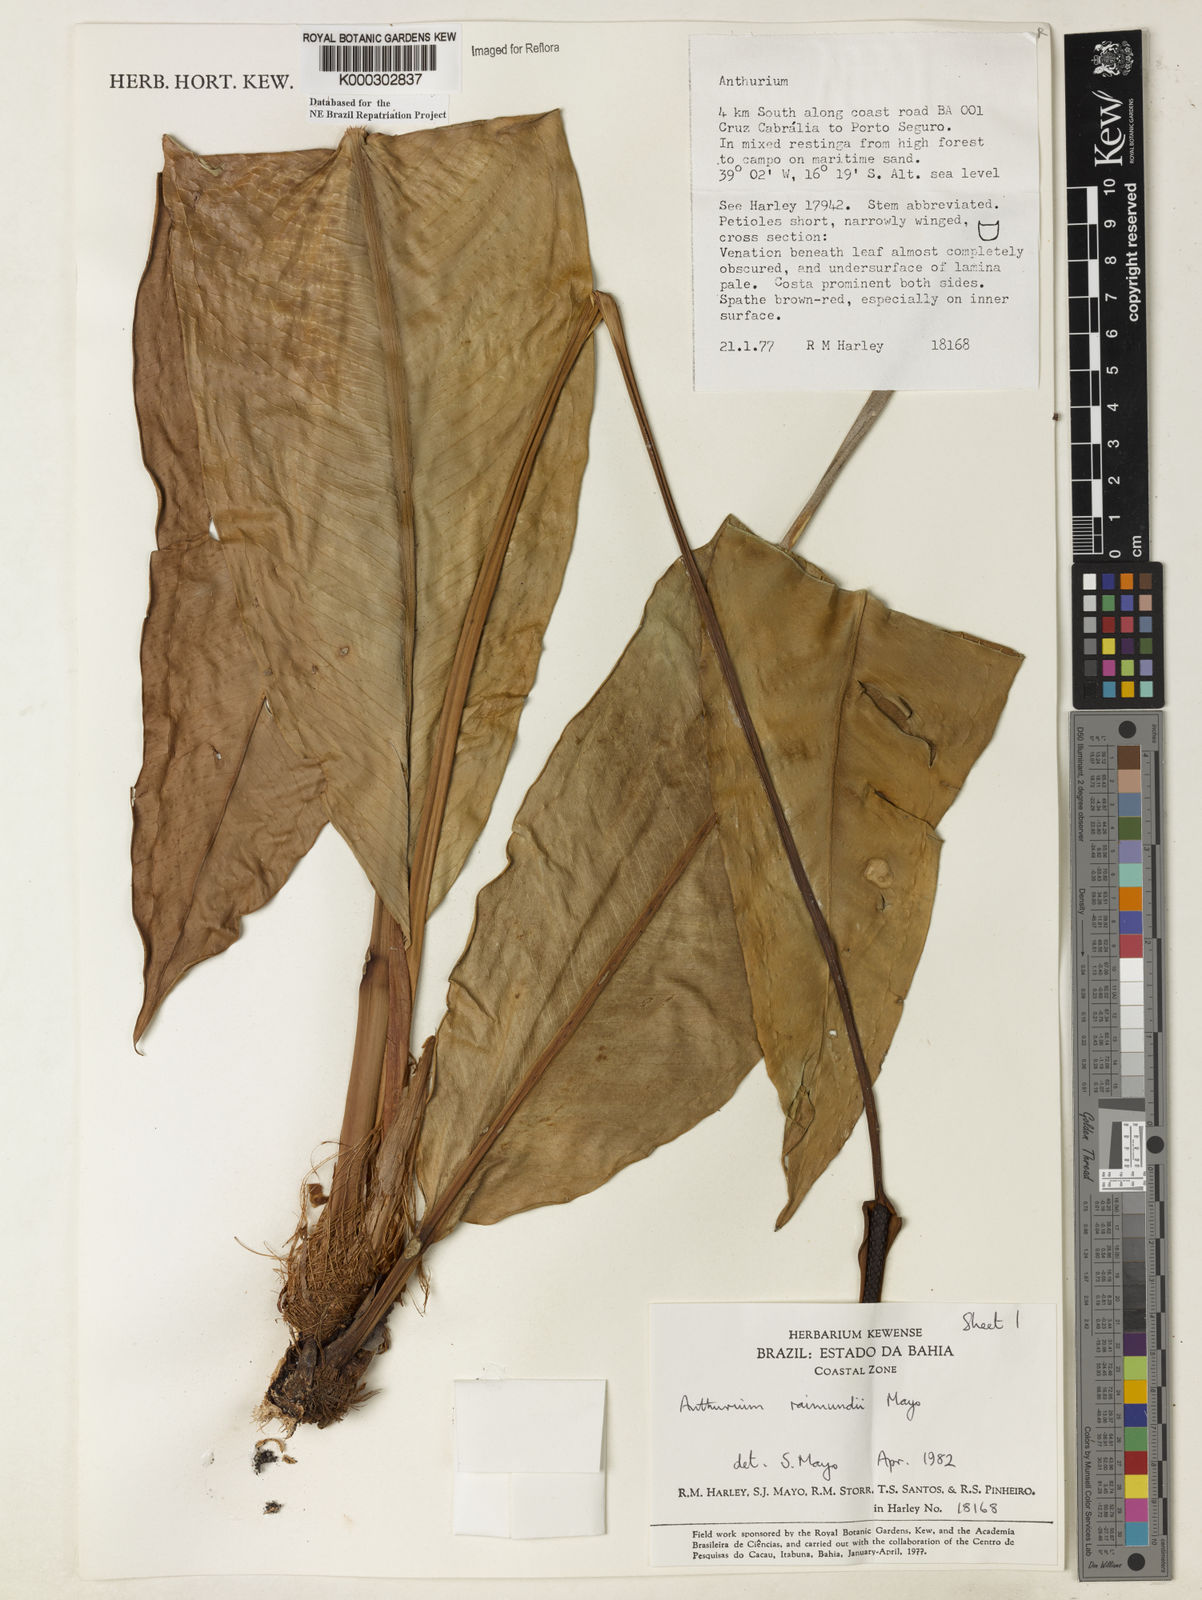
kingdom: Plantae
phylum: Tracheophyta
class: Liliopsida
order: Alismatales
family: Araceae
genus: Anthurium
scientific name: Anthurium raimundii
